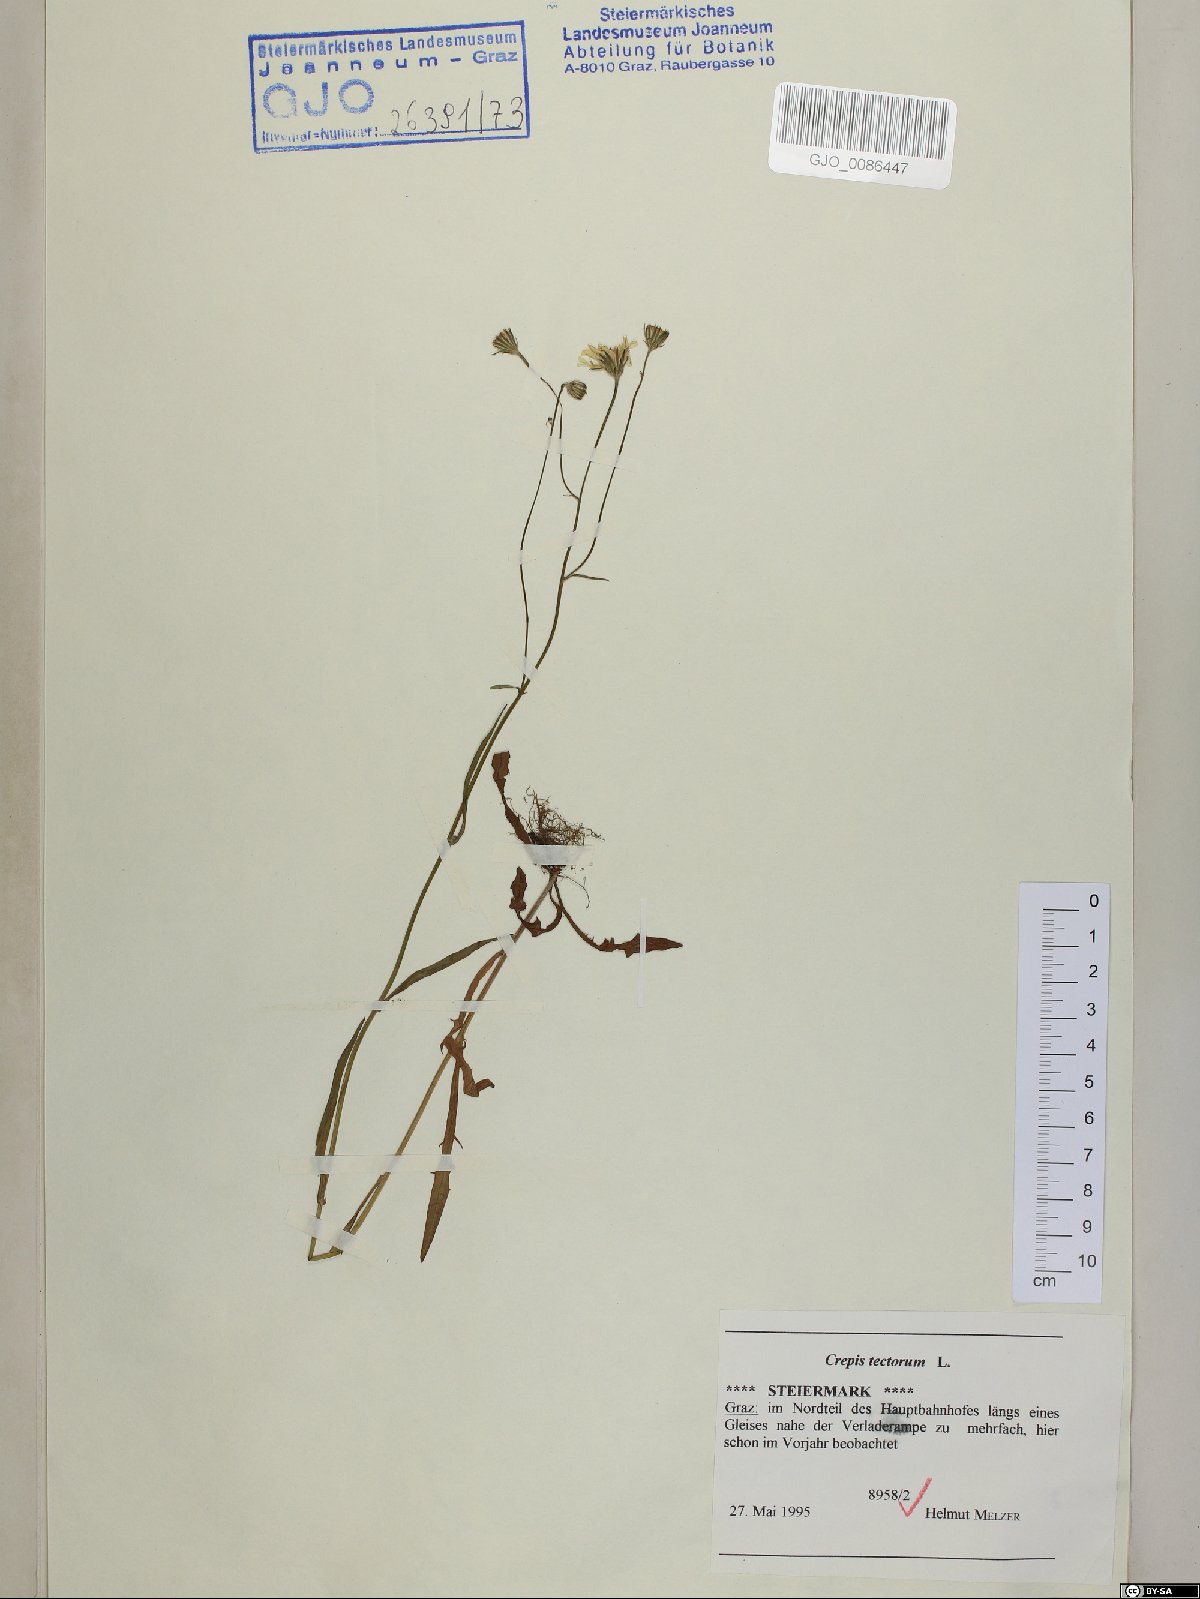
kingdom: Plantae
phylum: Tracheophyta
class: Magnoliopsida
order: Asterales
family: Asteraceae
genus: Crepis
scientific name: Crepis tectorum
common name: Narrow-leaved hawk's-beard
